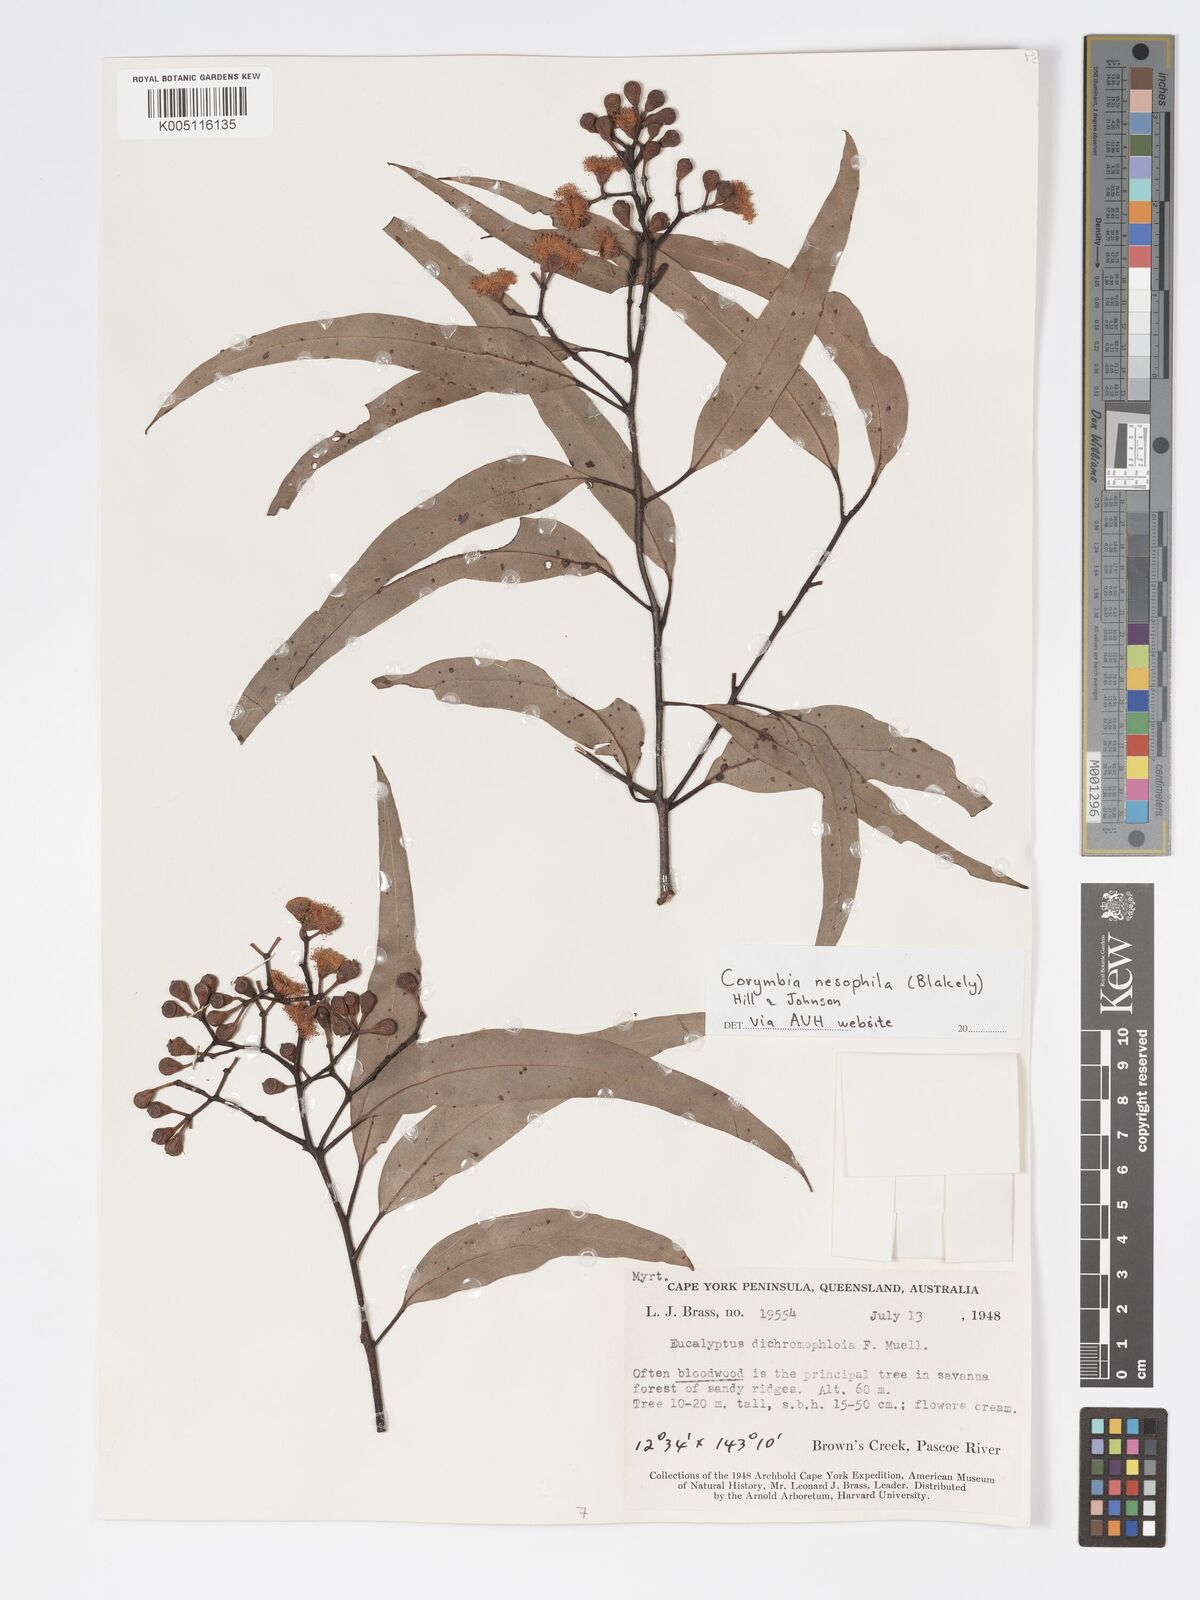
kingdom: Plantae
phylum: Tracheophyta
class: Magnoliopsida
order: Myrtales
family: Myrtaceae
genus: Corymbia
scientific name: Corymbia nesophila
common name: Melville-island-bloodwood
